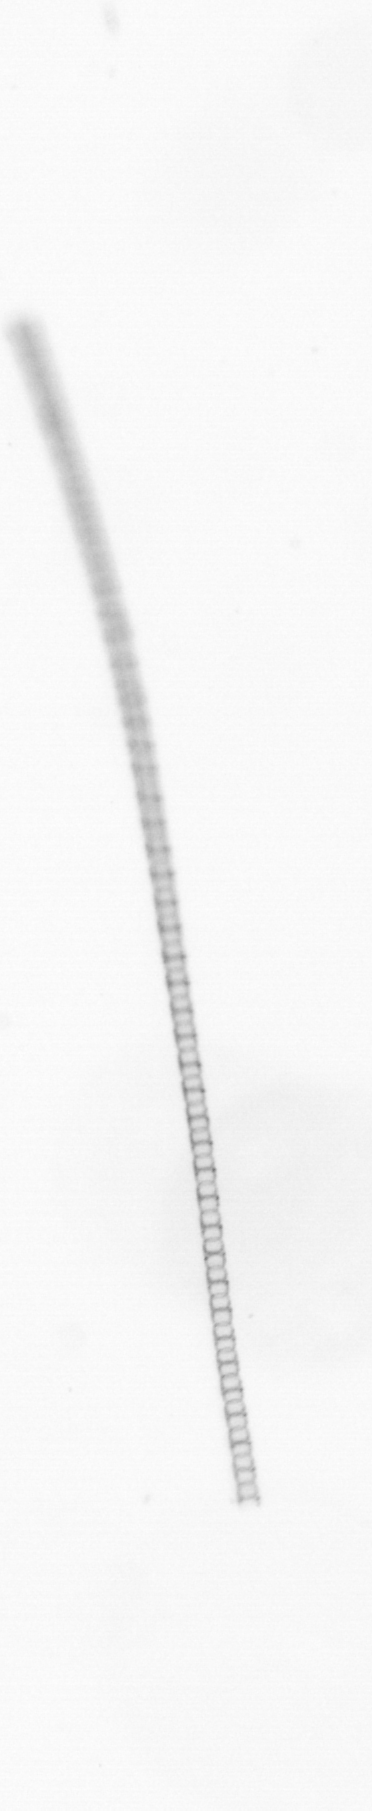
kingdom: Chromista
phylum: Ochrophyta
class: Bacillariophyceae
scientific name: Bacillariophyceae
